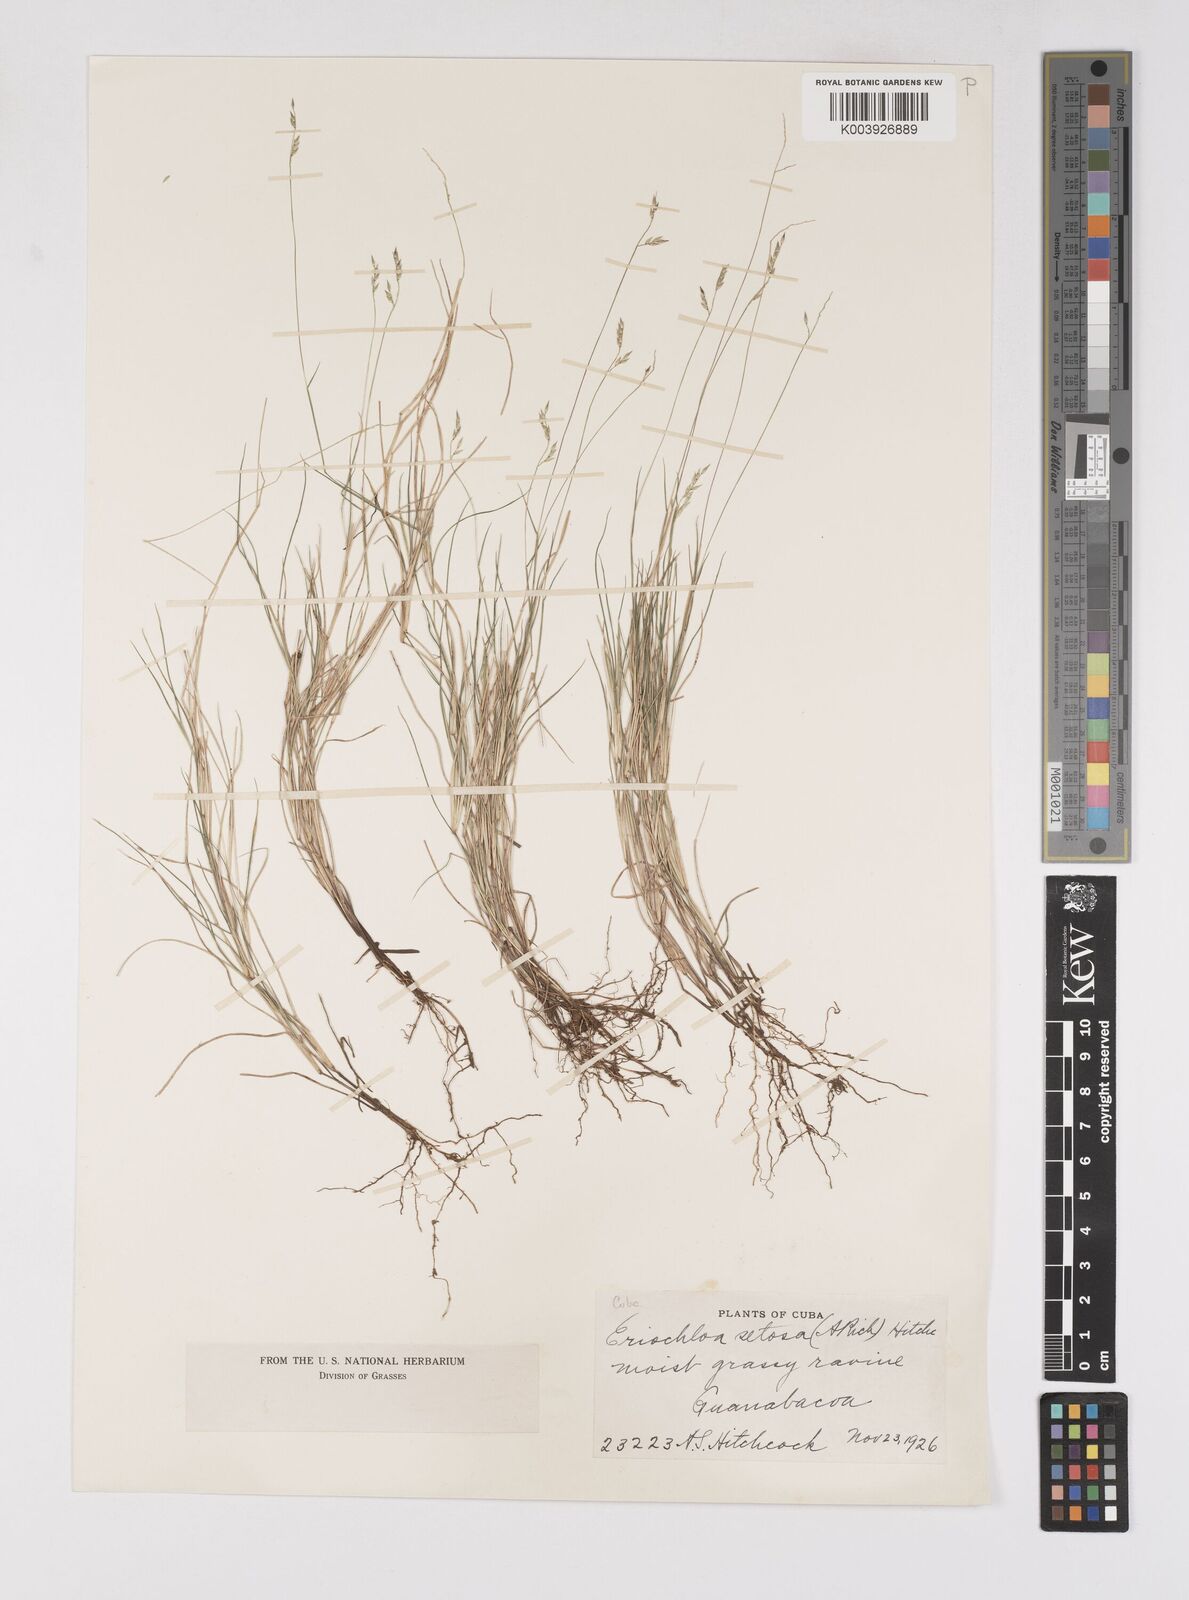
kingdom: Plantae
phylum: Tracheophyta
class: Liliopsida
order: Poales
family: Poaceae
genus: Eriochloa
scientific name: Eriochloa setosa
